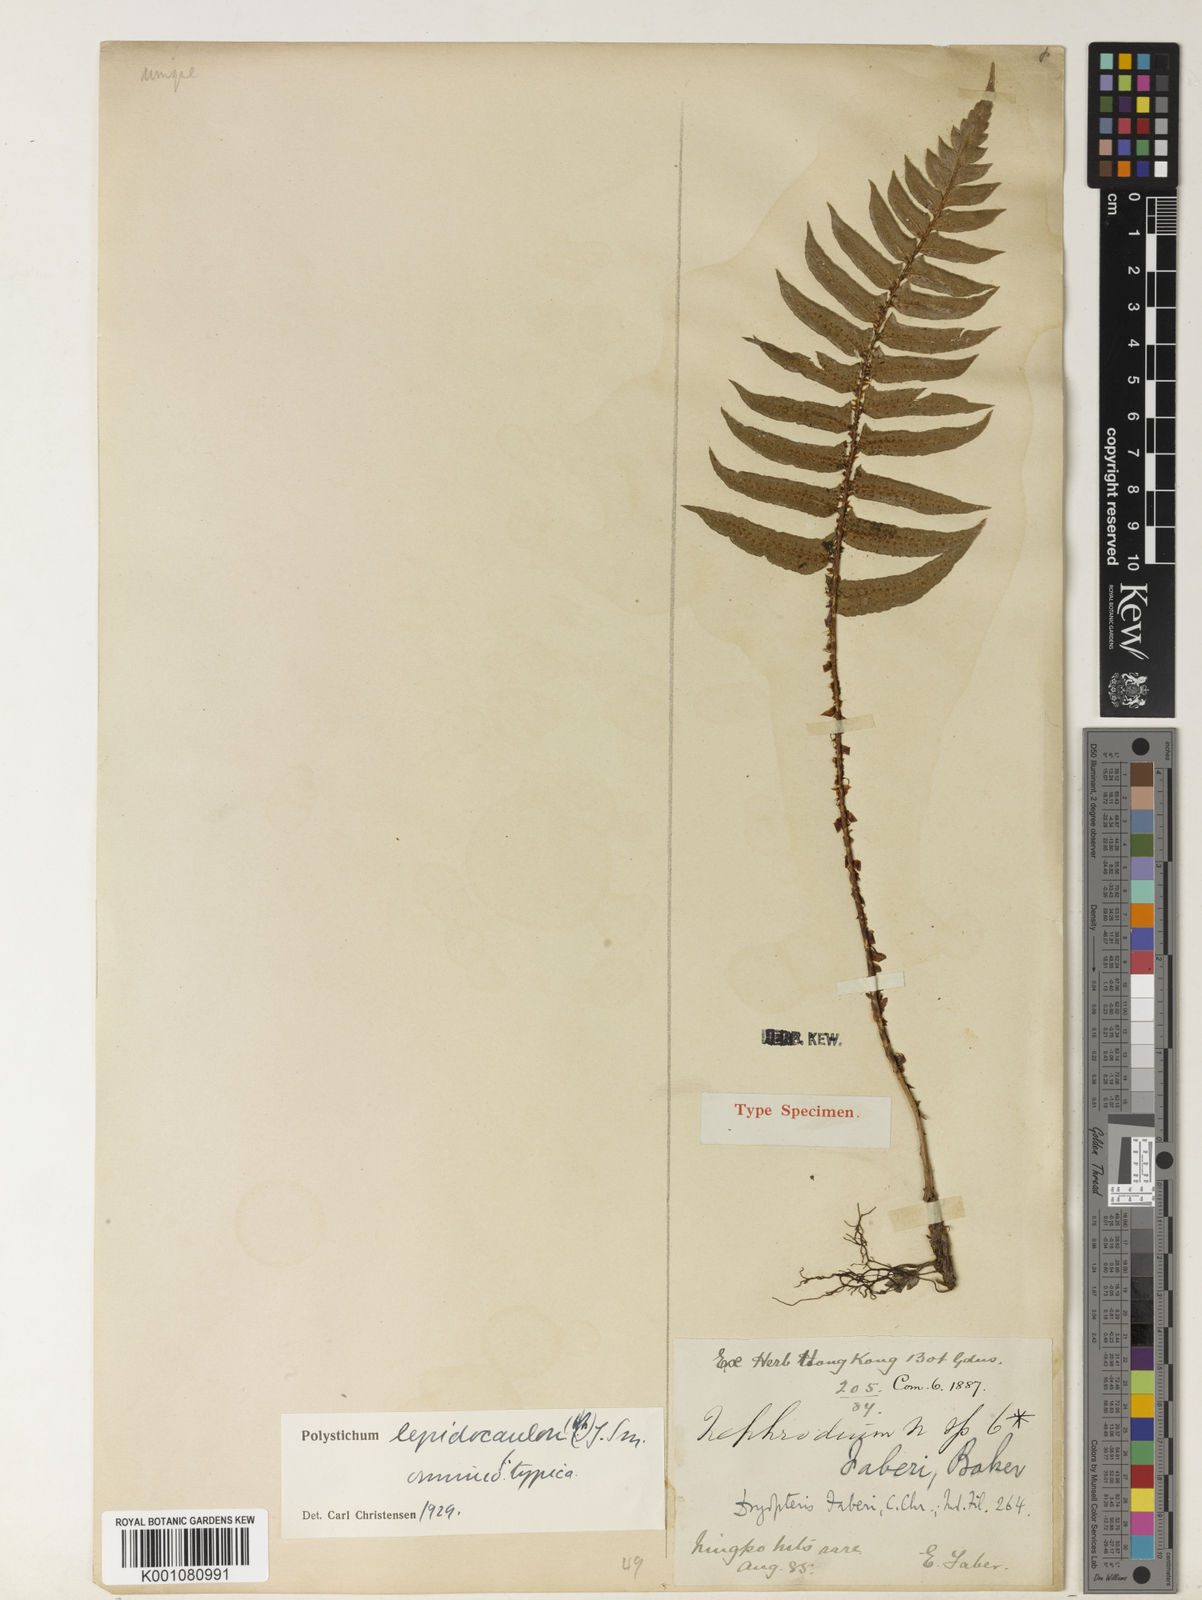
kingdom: Plantae
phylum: Tracheophyta
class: Polypodiopsida
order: Polypodiales
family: Dryopteridaceae
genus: Polystichum
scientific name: Polystichum lepidocaulon
